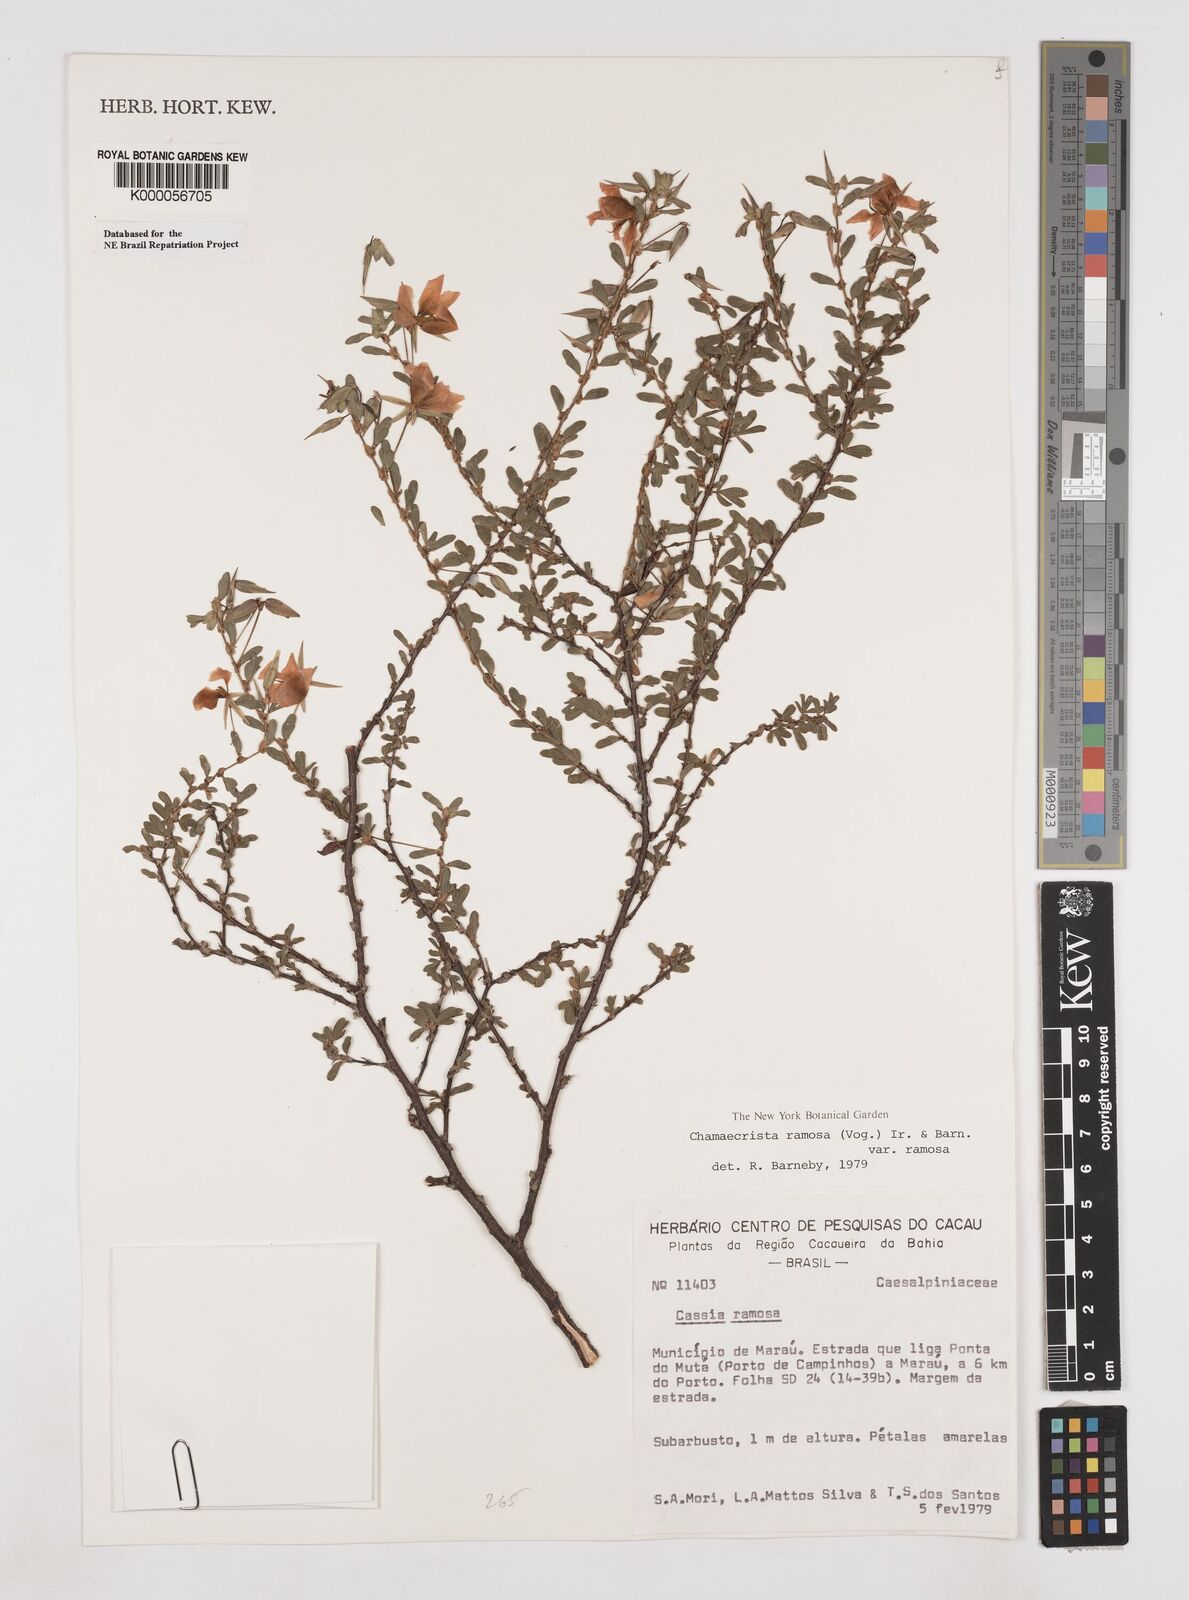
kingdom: Plantae
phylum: Tracheophyta
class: Magnoliopsida
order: Fabales
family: Fabaceae
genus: Chamaecrista
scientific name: Chamaecrista ramosa
